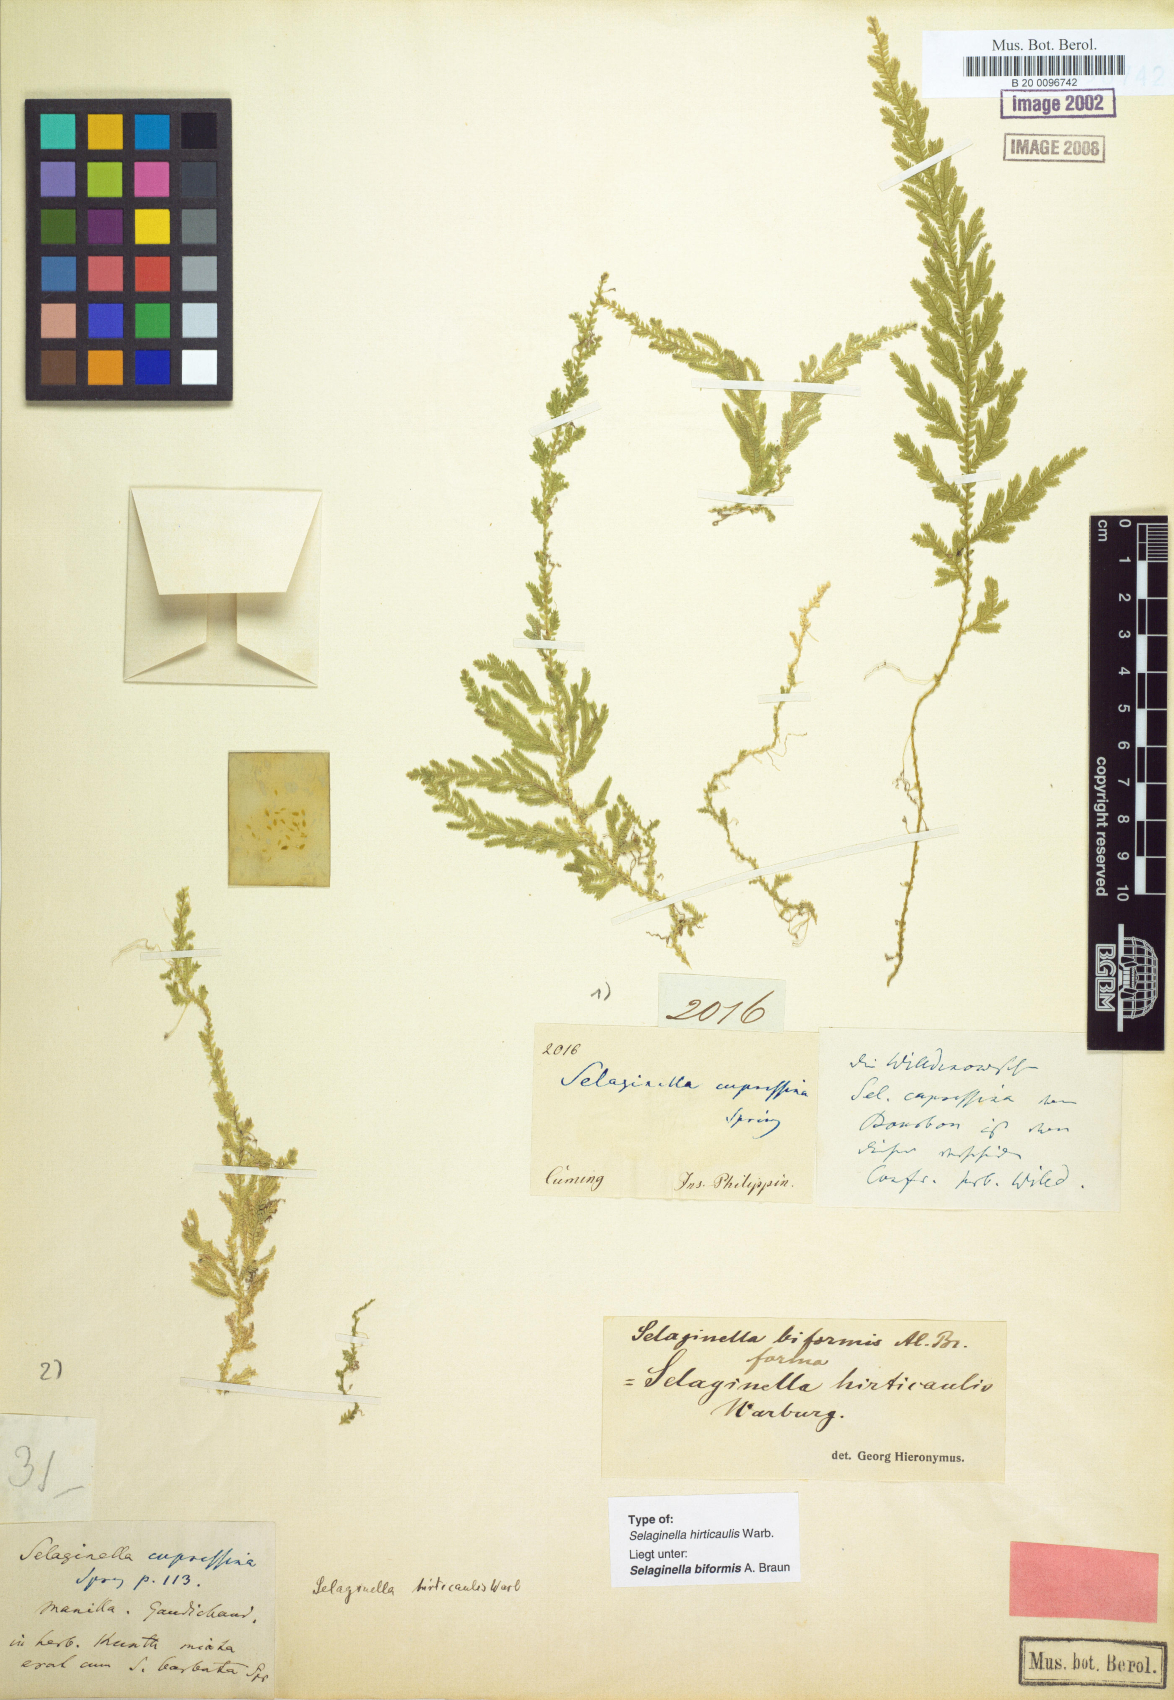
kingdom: Plantae
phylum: Tracheophyta
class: Lycopodiopsida
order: Selaginellales
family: Selaginellaceae
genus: Selaginella
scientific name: Selaginella biformis
